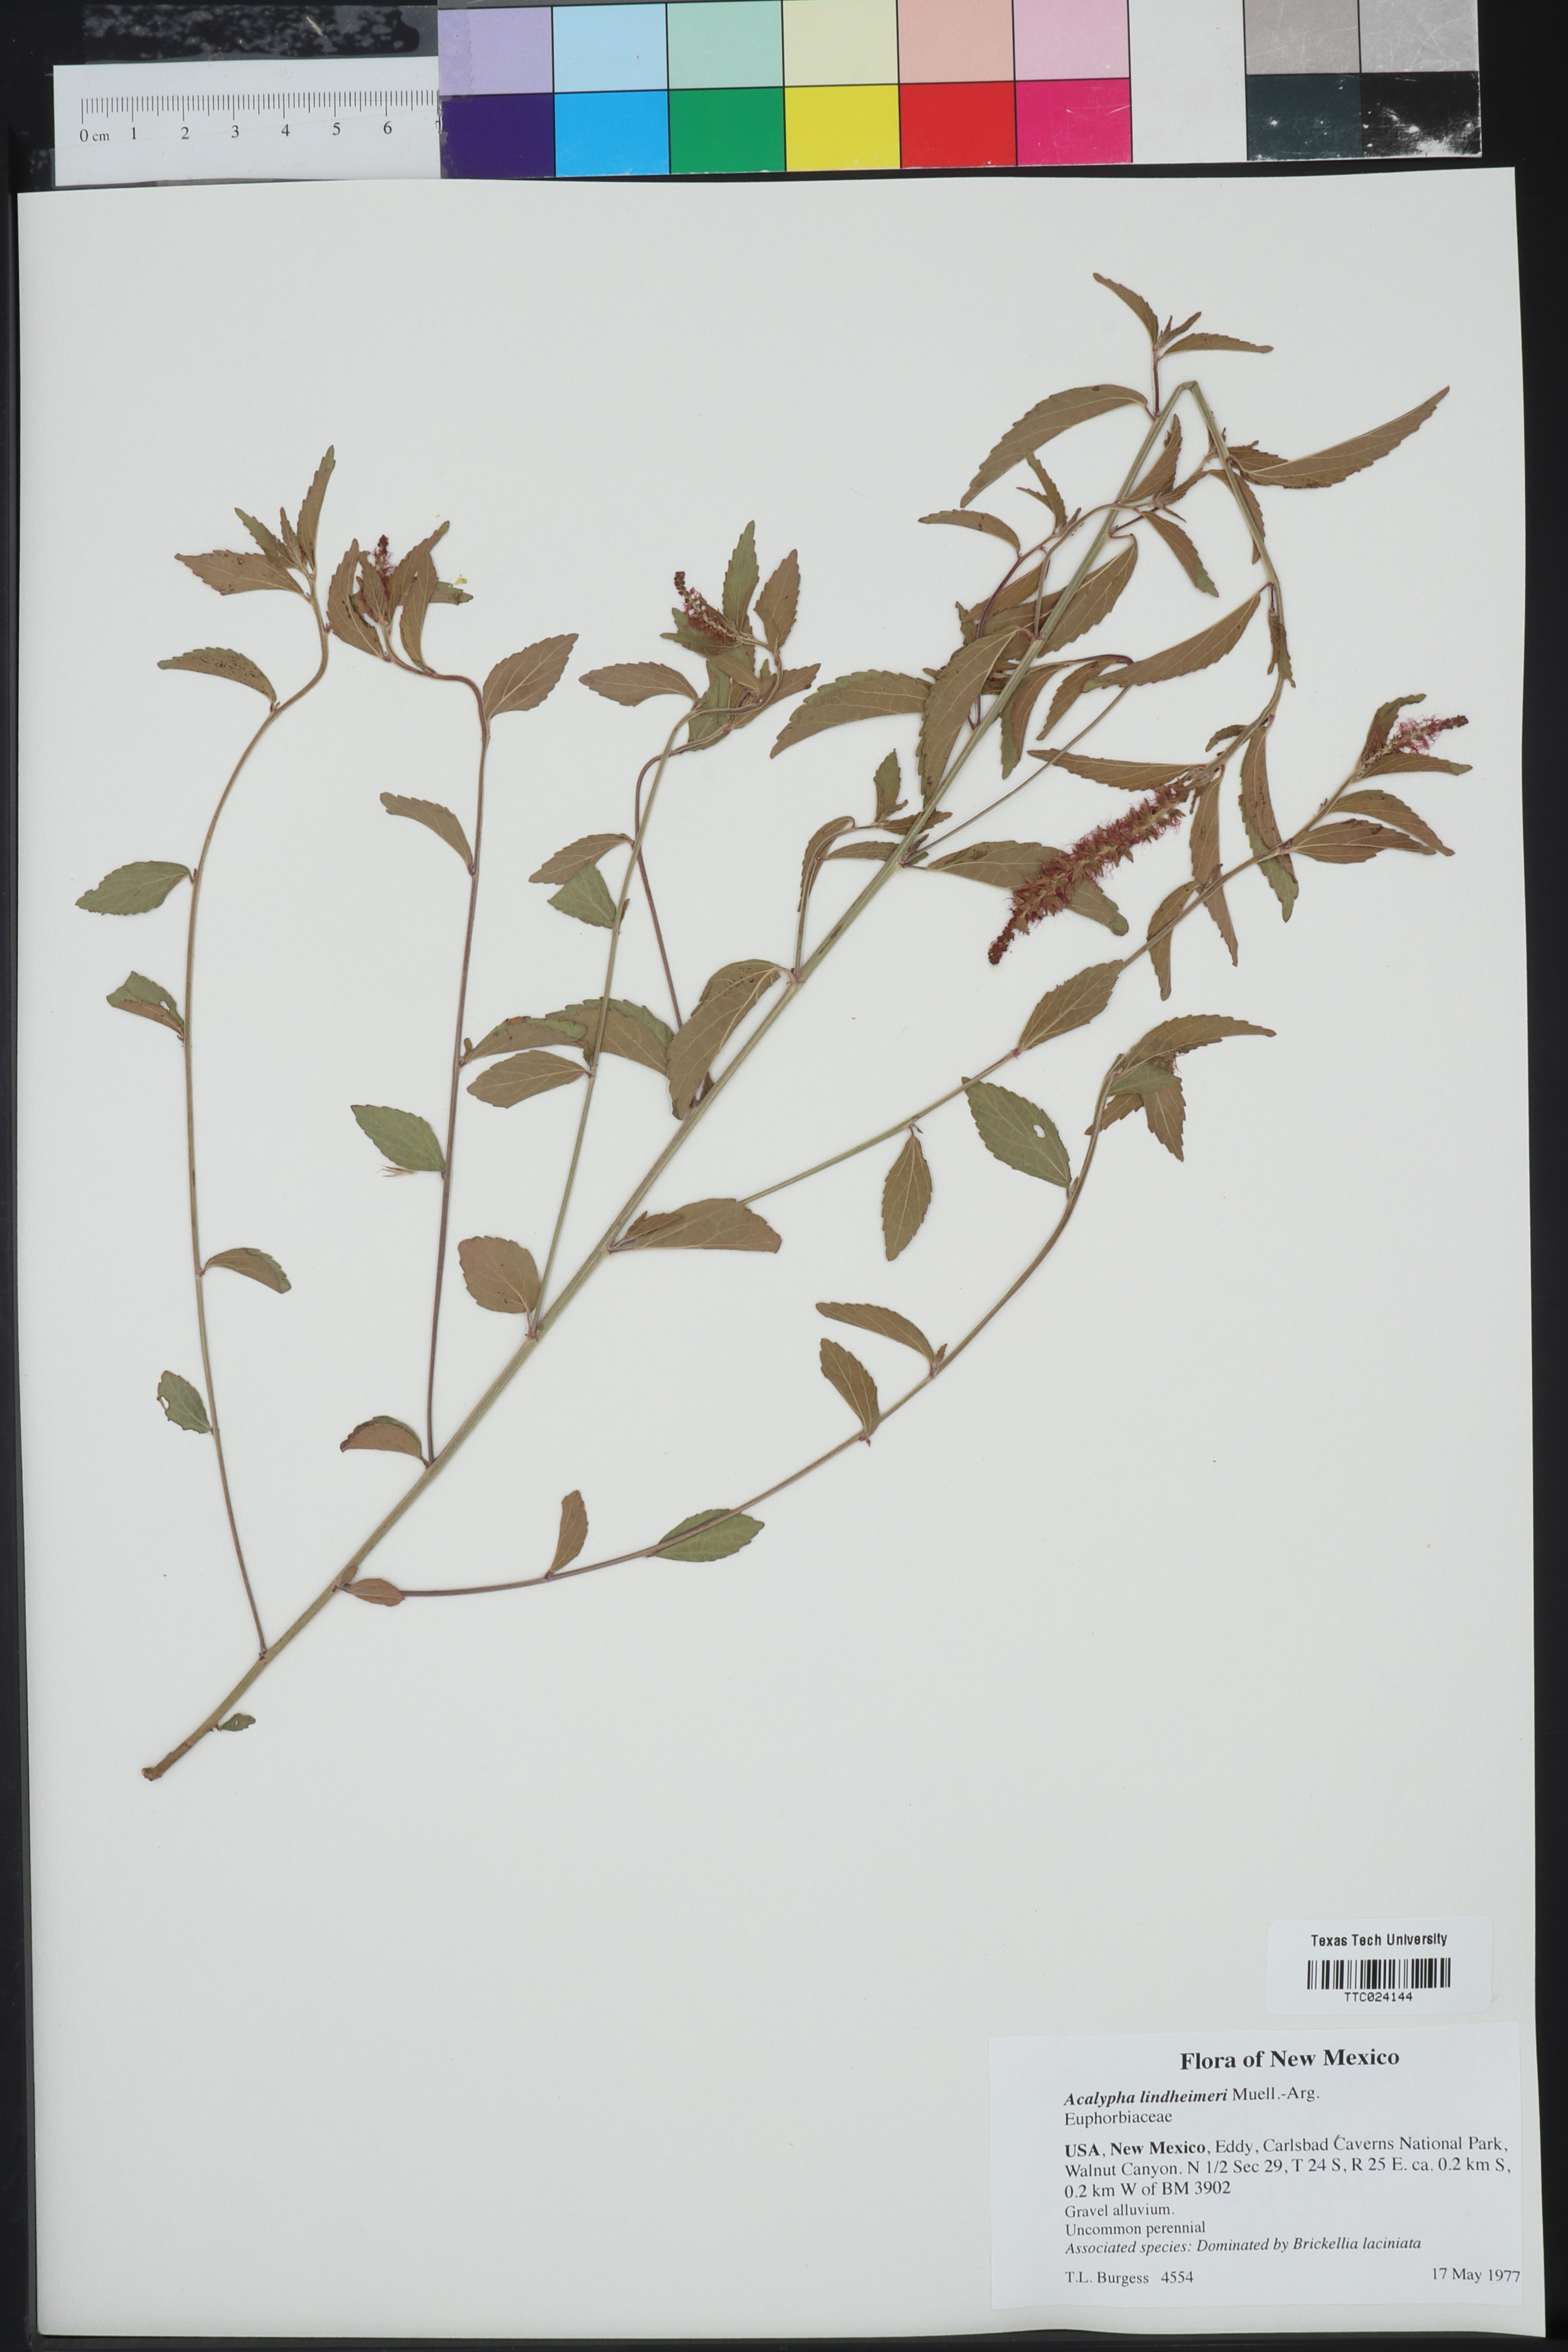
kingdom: Plantae
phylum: Tracheophyta
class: Magnoliopsida
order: Malpighiales
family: Euphorbiaceae
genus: Acalypha
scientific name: Acalypha phleoides
